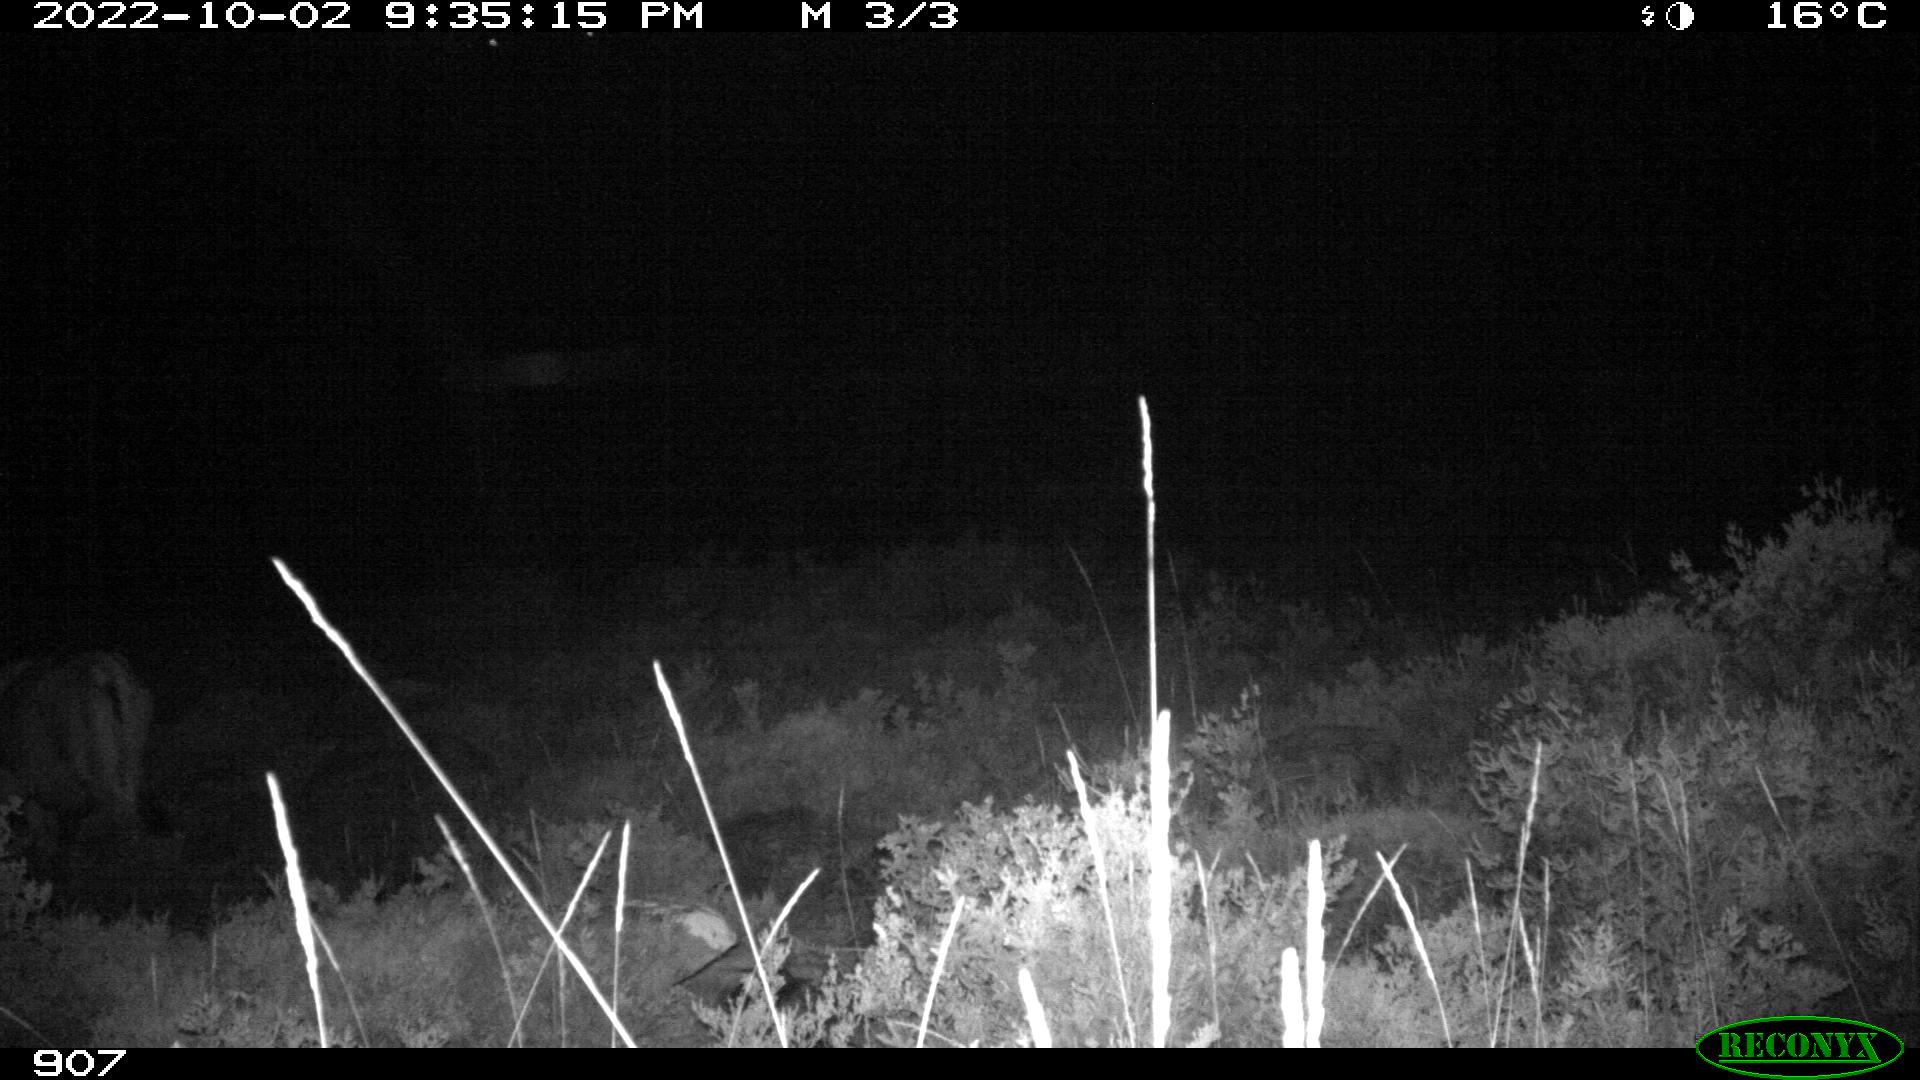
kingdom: Animalia
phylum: Chordata
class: Mammalia
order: Artiodactyla
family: Bovidae
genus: Bos
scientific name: Bos taurus
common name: Domesticated cattle
